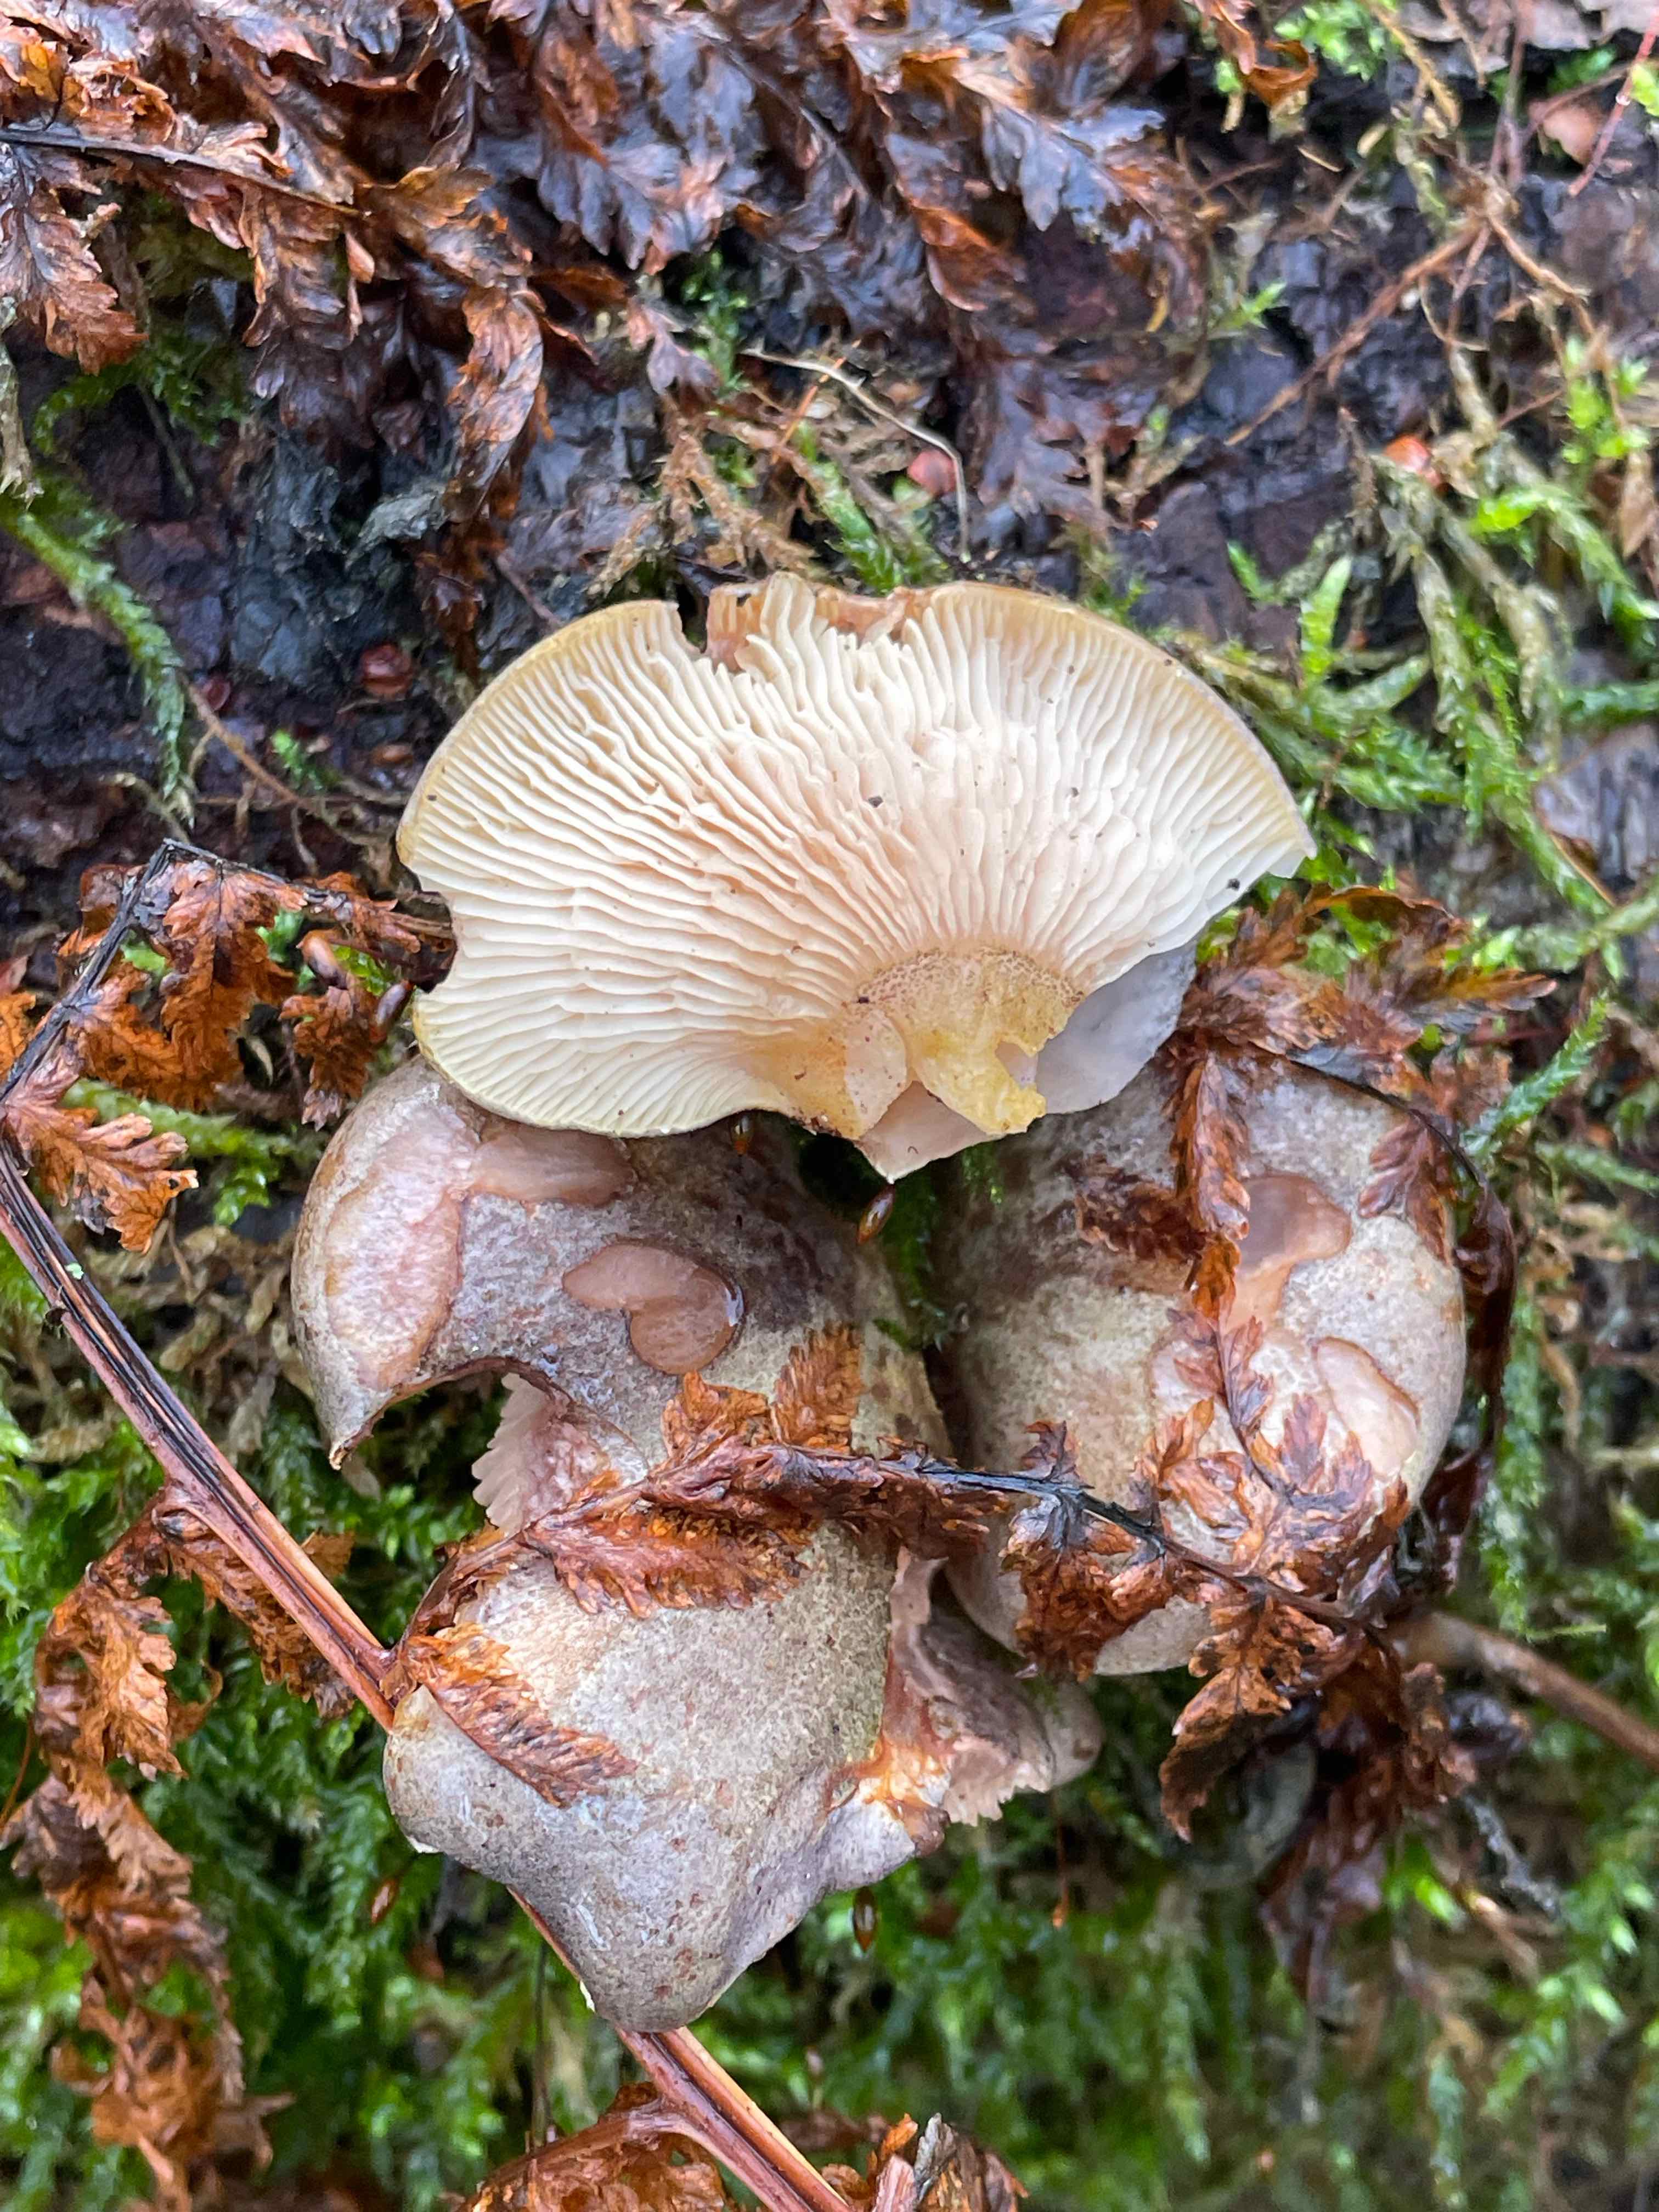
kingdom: Fungi
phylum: Basidiomycota
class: Agaricomycetes
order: Agaricales
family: Sarcomyxaceae
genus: Sarcomyxa
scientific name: Sarcomyxa serotina
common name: gummihat
